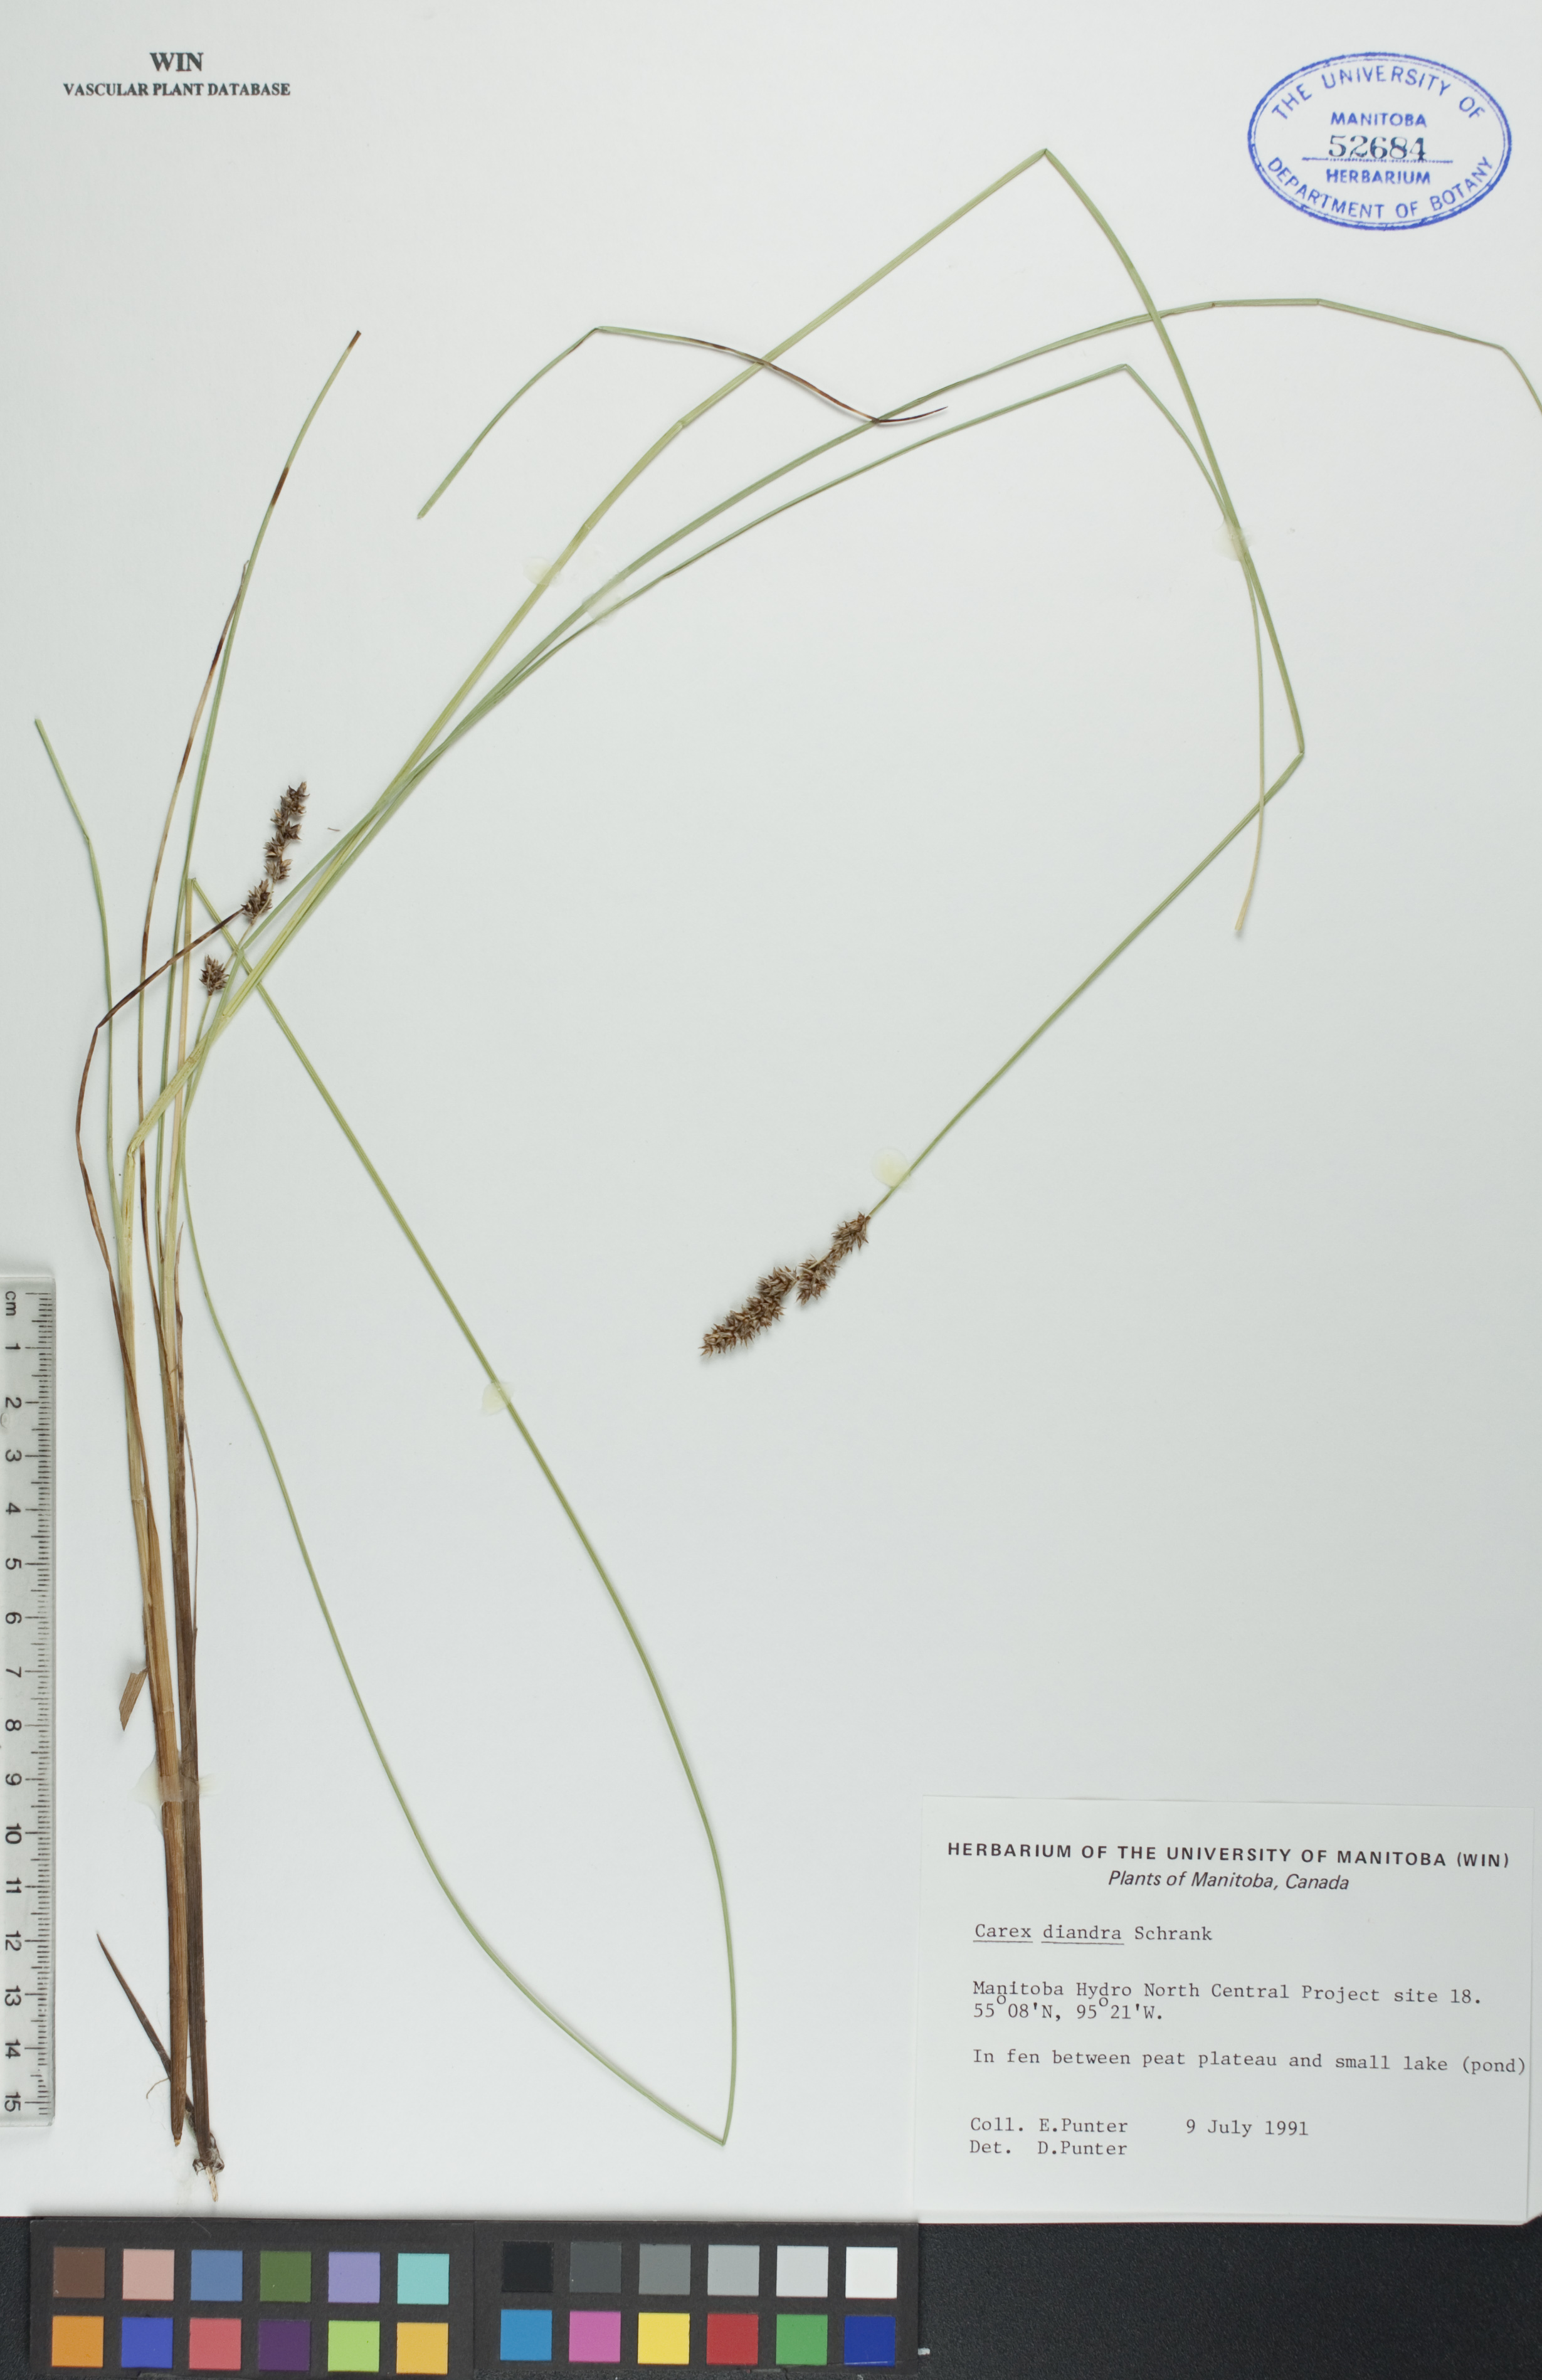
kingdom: Plantae
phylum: Tracheophyta
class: Liliopsida
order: Poales
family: Cyperaceae
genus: Carex
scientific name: Carex diandra
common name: Lesser tussock-sedge
